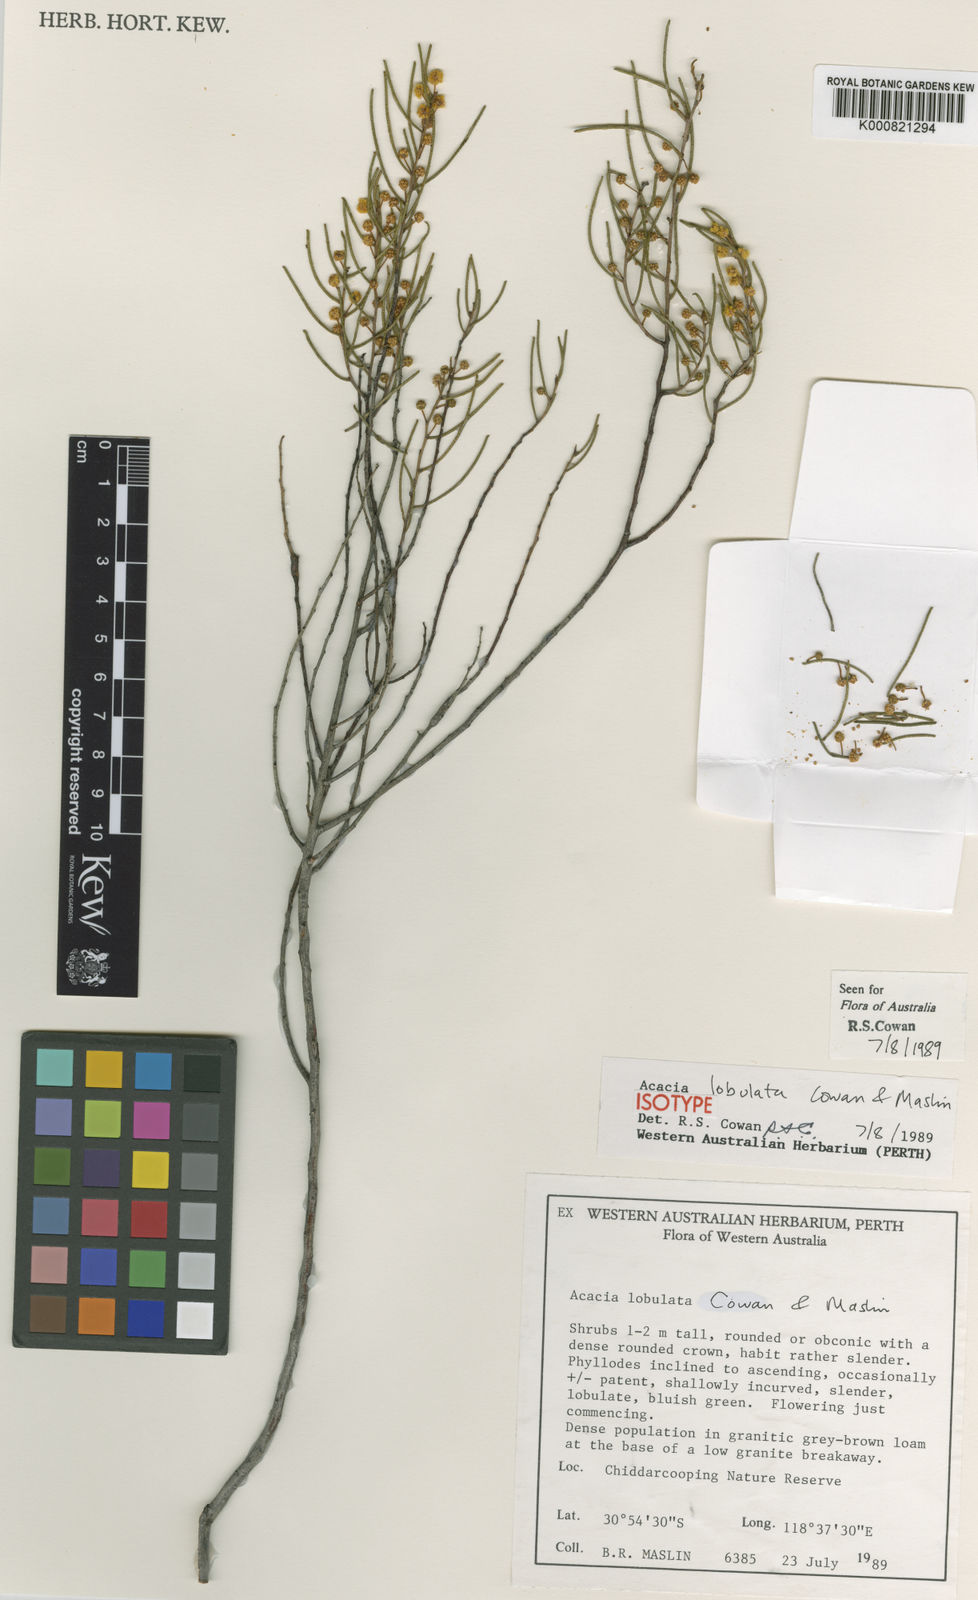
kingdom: Plantae
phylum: Tracheophyta
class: Magnoliopsida
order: Fabales
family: Fabaceae
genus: Acacia
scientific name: Acacia lobulata
